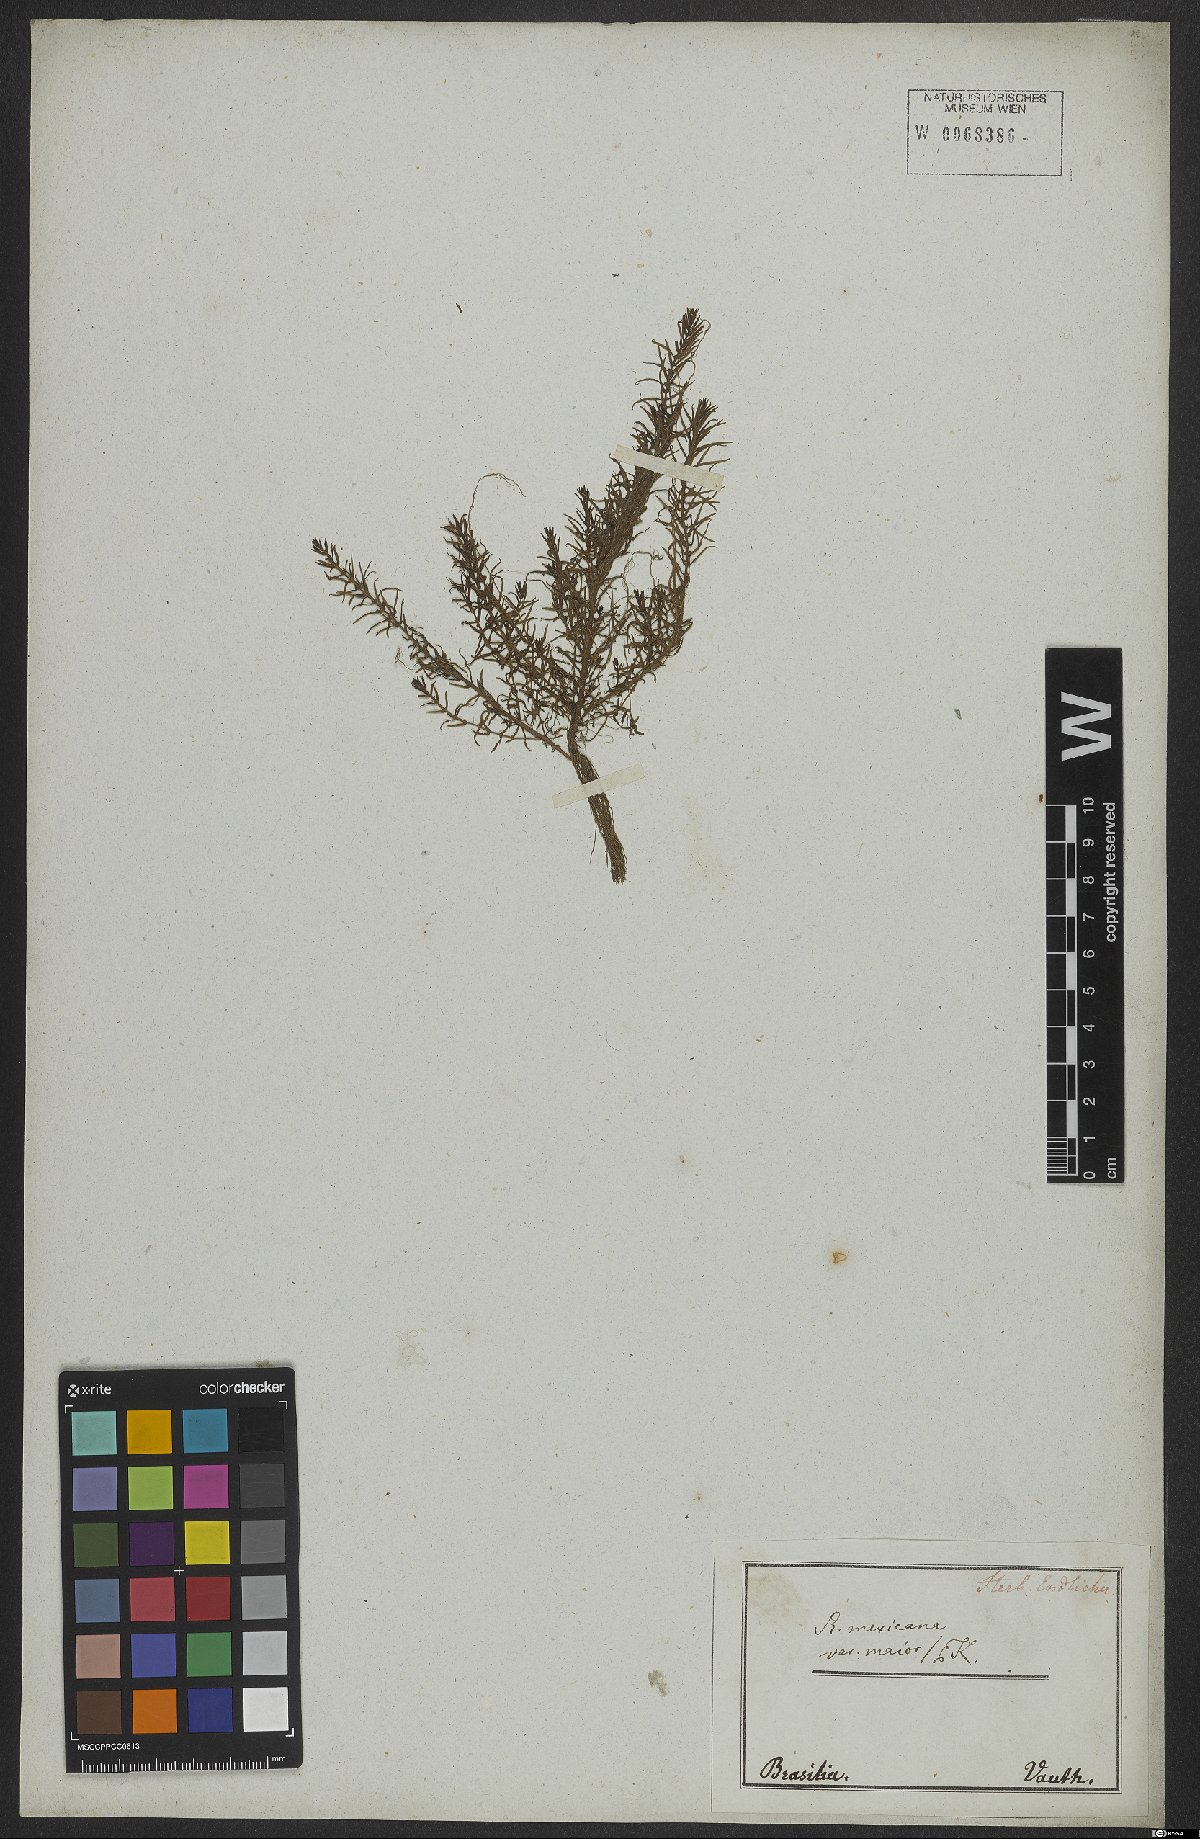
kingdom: Plantae
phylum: Tracheophyta
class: Magnoliopsida
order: Myrtales
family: Lythraceae
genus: Rotala
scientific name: Rotala mexicana
